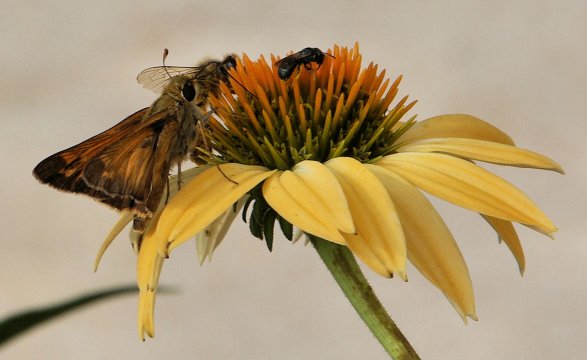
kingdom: Animalia
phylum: Arthropoda
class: Insecta
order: Lepidoptera
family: Hesperiidae
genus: Atalopedes
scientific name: Atalopedes campestris
